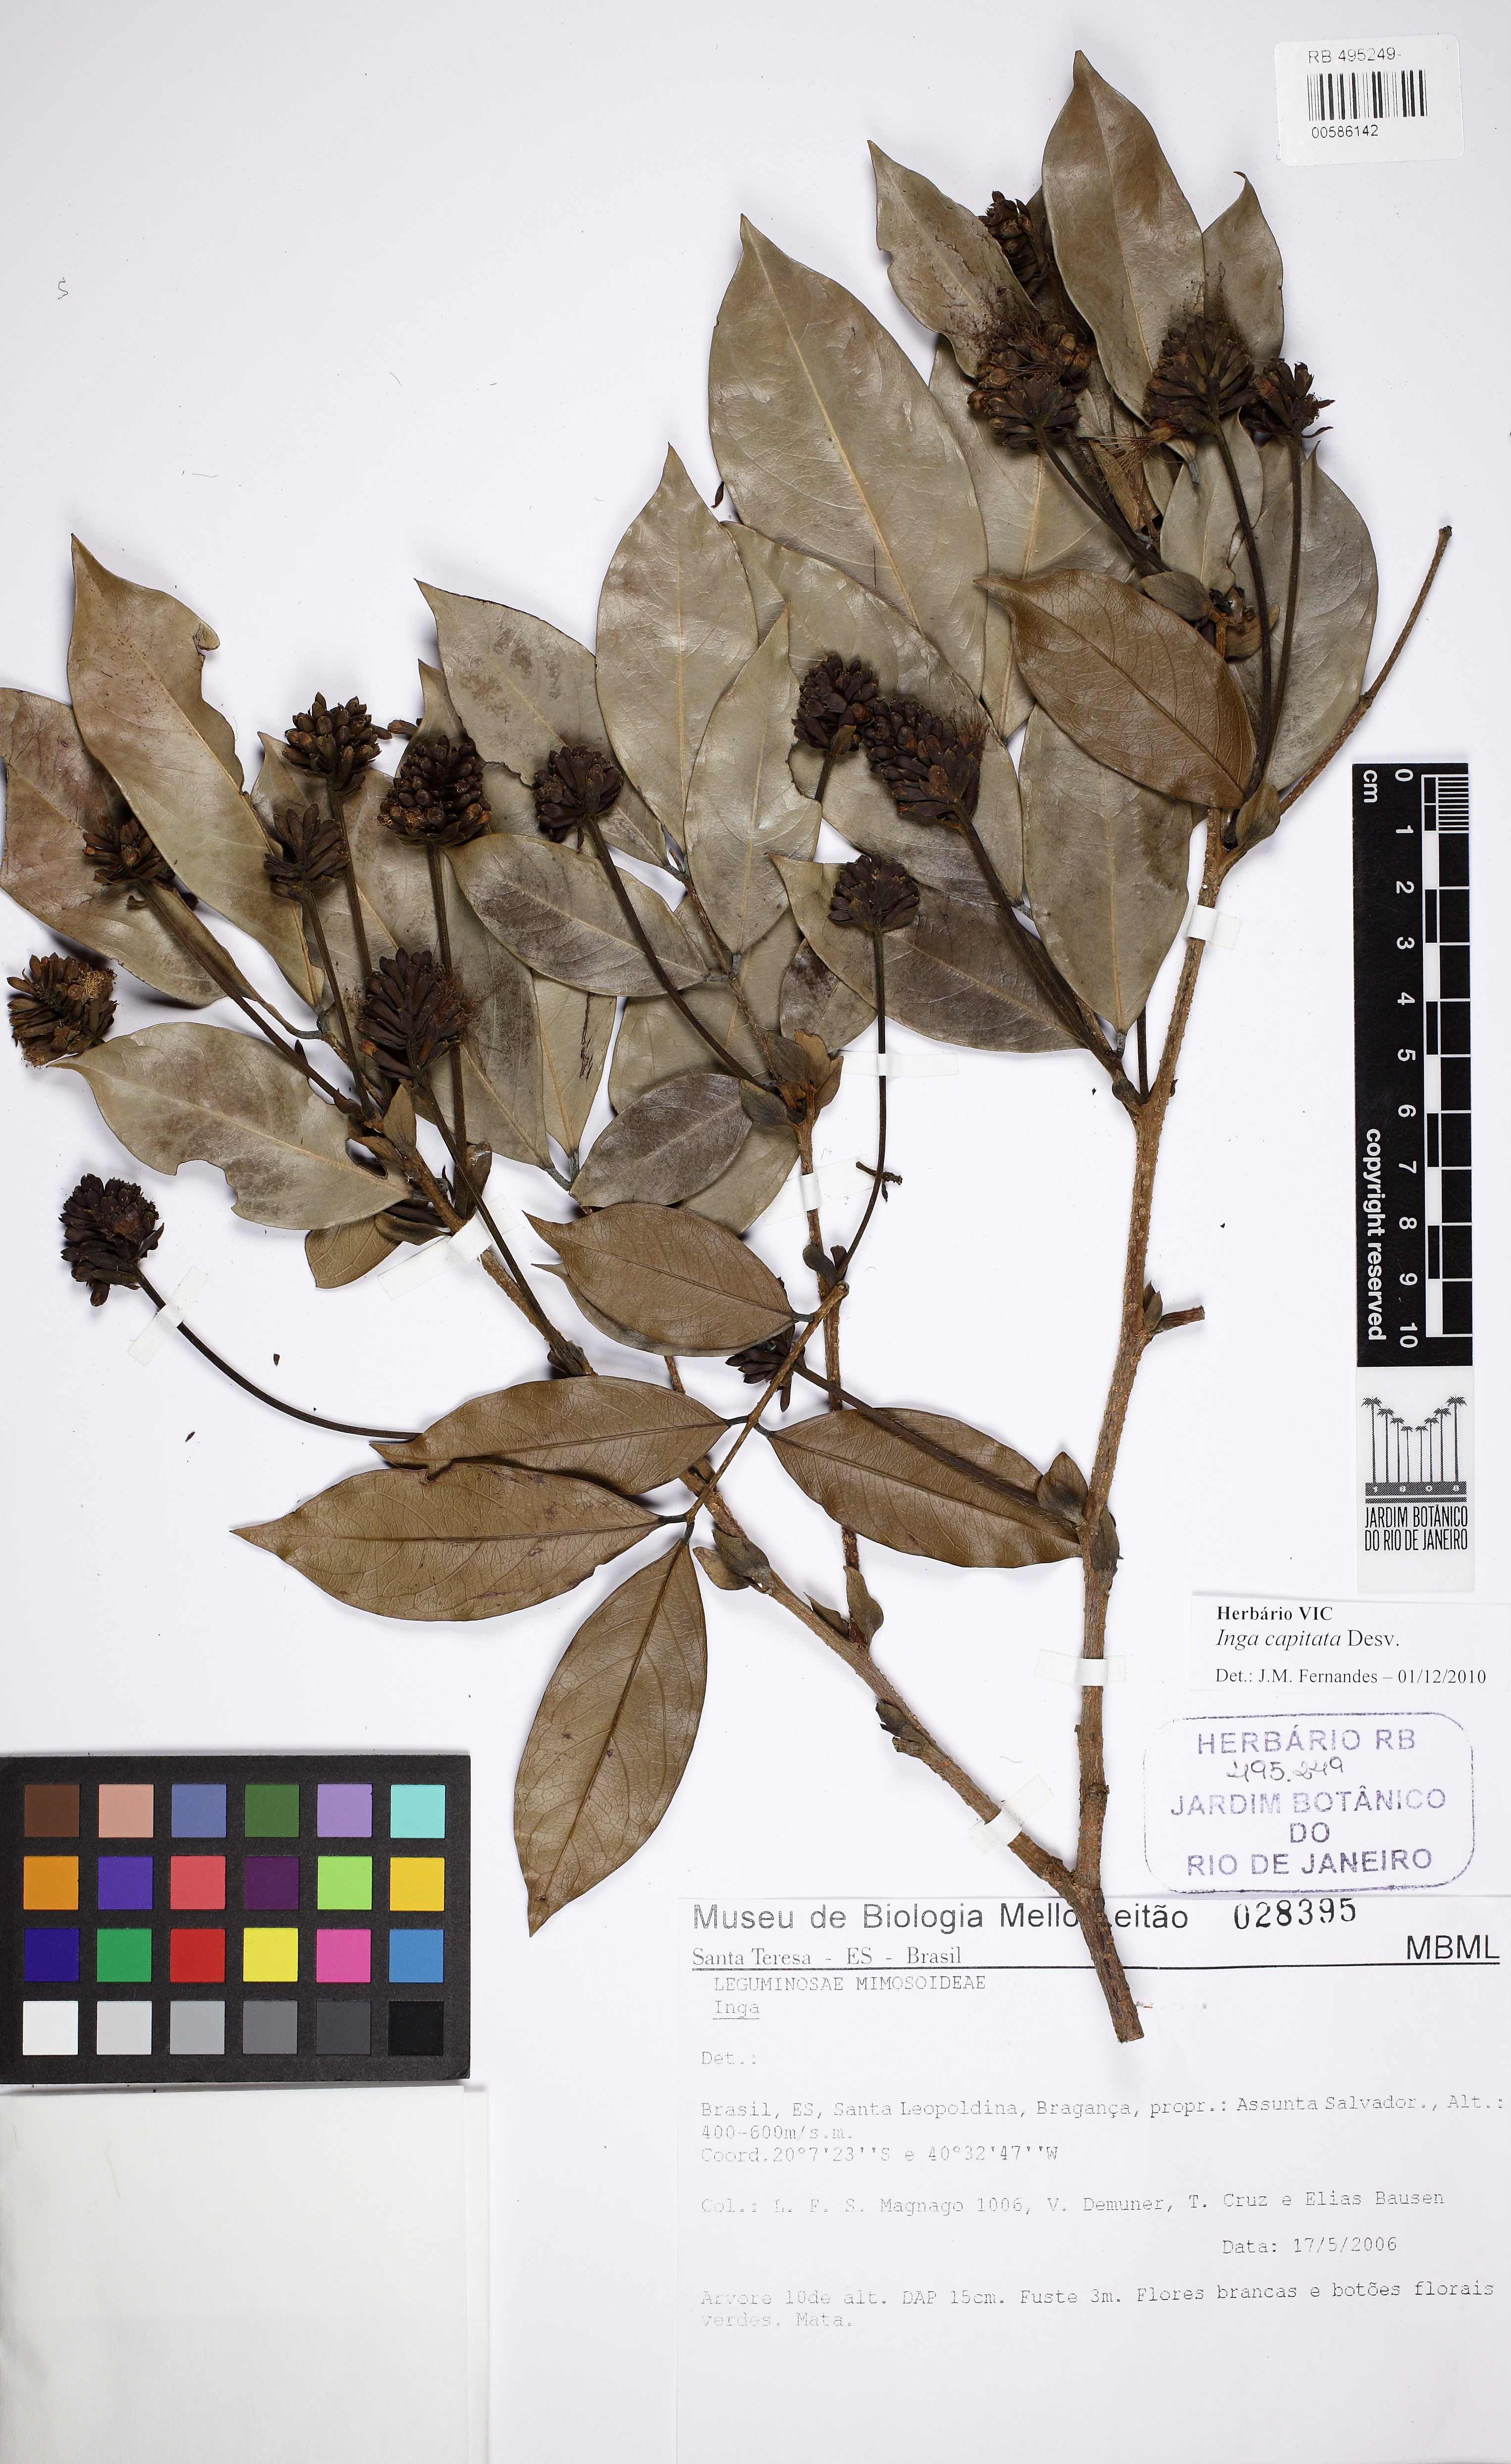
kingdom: Plantae
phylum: Tracheophyta
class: Magnoliopsida
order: Fabales
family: Fabaceae
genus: Inga
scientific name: Inga capitata
